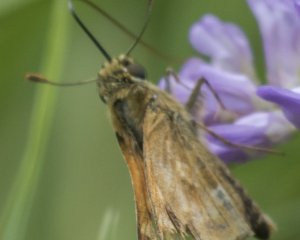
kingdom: Animalia
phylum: Arthropoda
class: Insecta
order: Lepidoptera
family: Hesperiidae
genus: Polites
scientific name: Polites
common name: Long Dash Skipper
